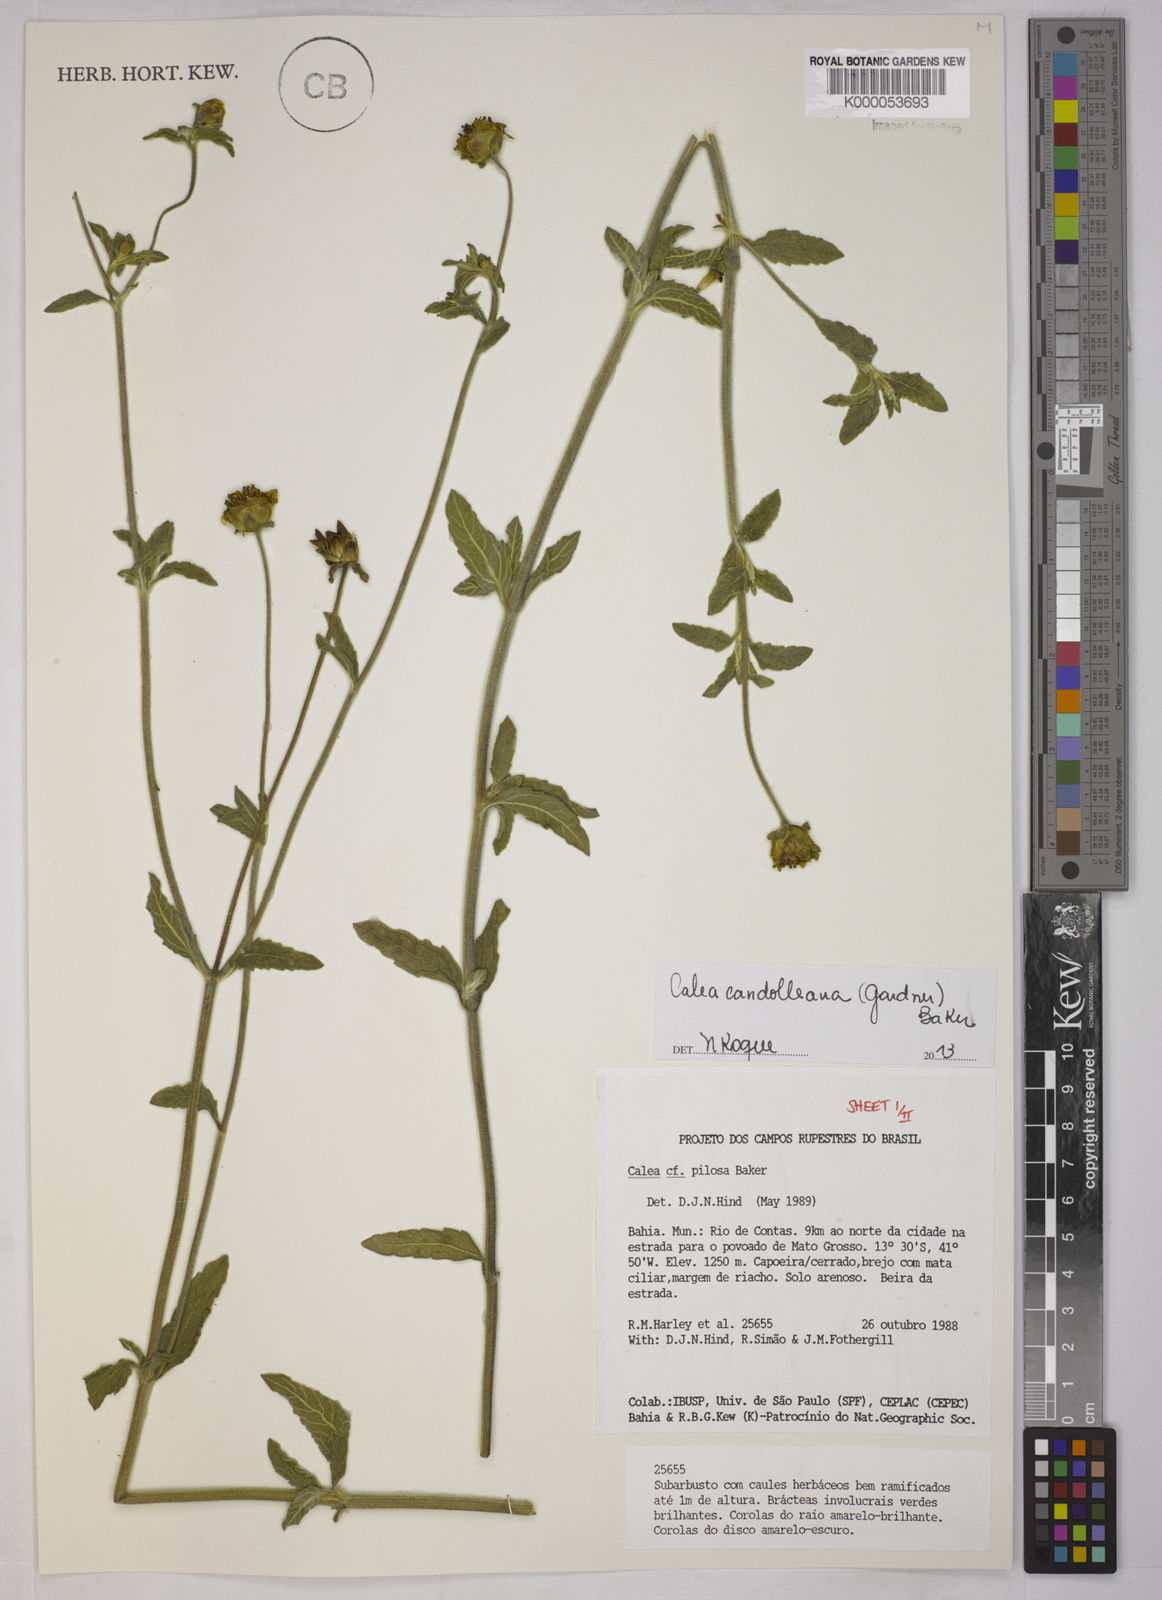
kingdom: Plantae
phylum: Tracheophyta
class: Magnoliopsida
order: Asterales
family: Asteraceae
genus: Calea
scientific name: Calea pilosa
